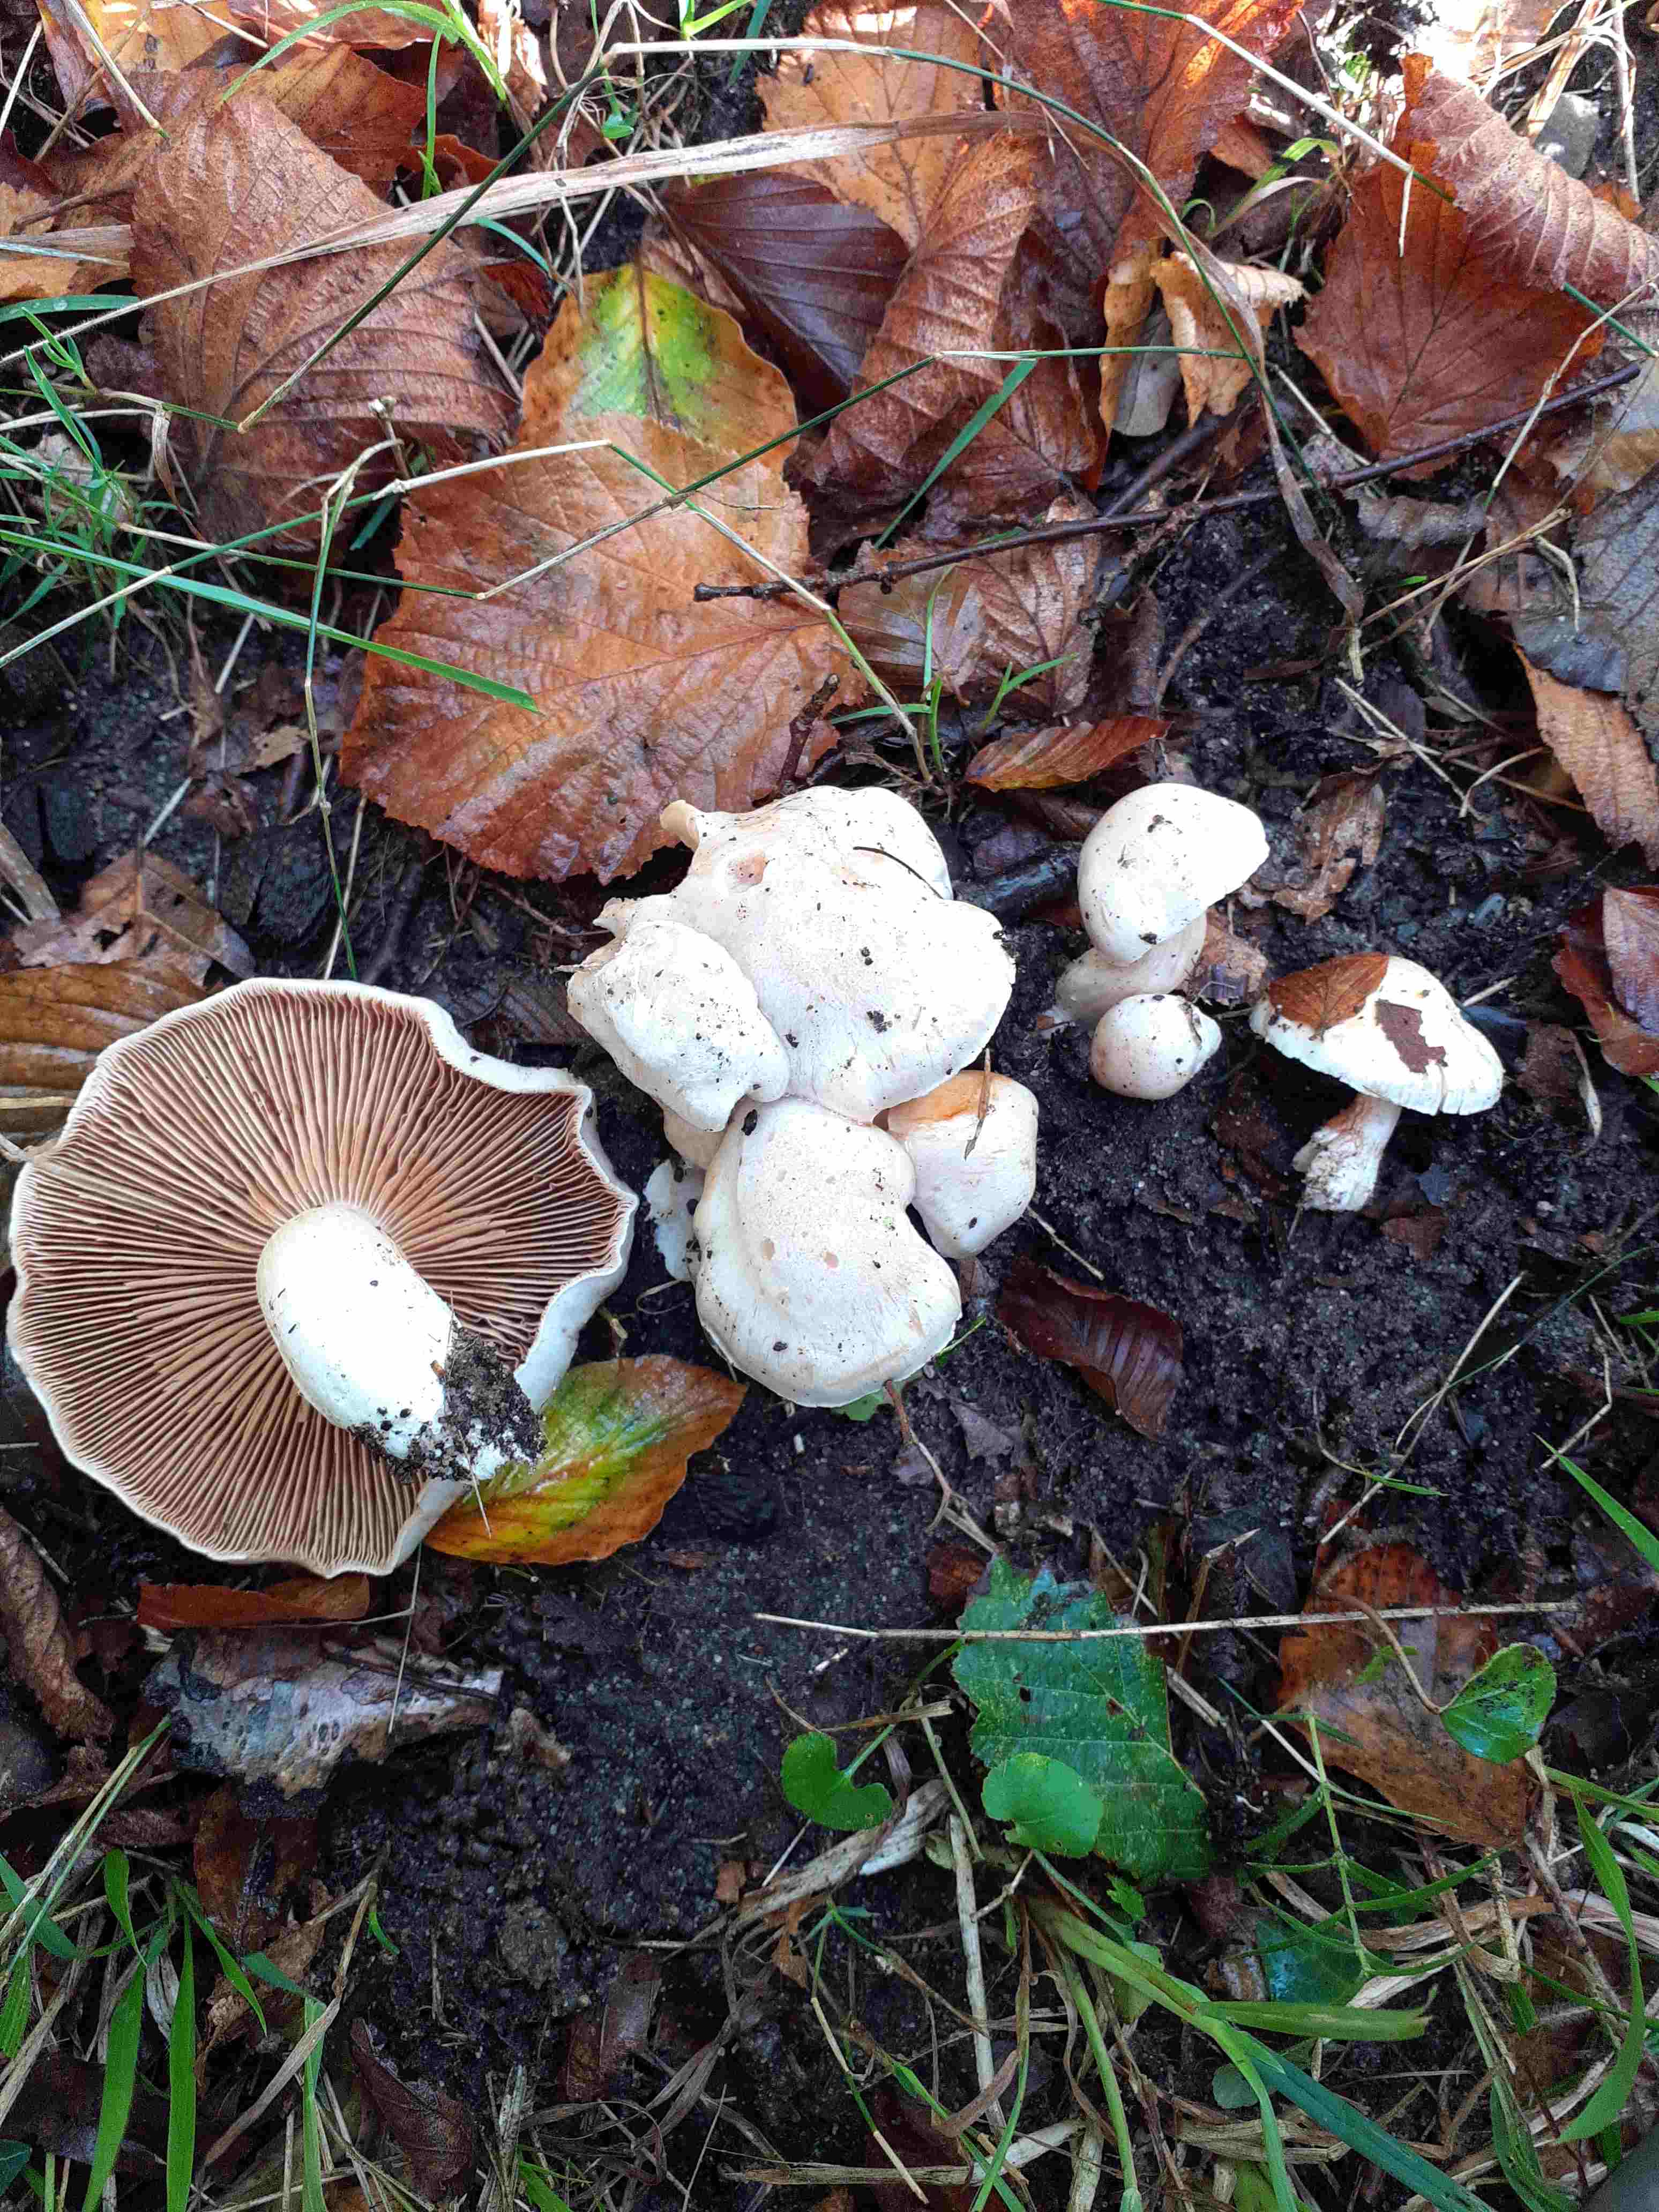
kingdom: Fungi
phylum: Basidiomycota
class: Agaricomycetes
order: Agaricales
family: Cortinariaceae
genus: Thaxterogaster
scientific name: Thaxterogaster barbatus
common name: elfenbens-slørhat
